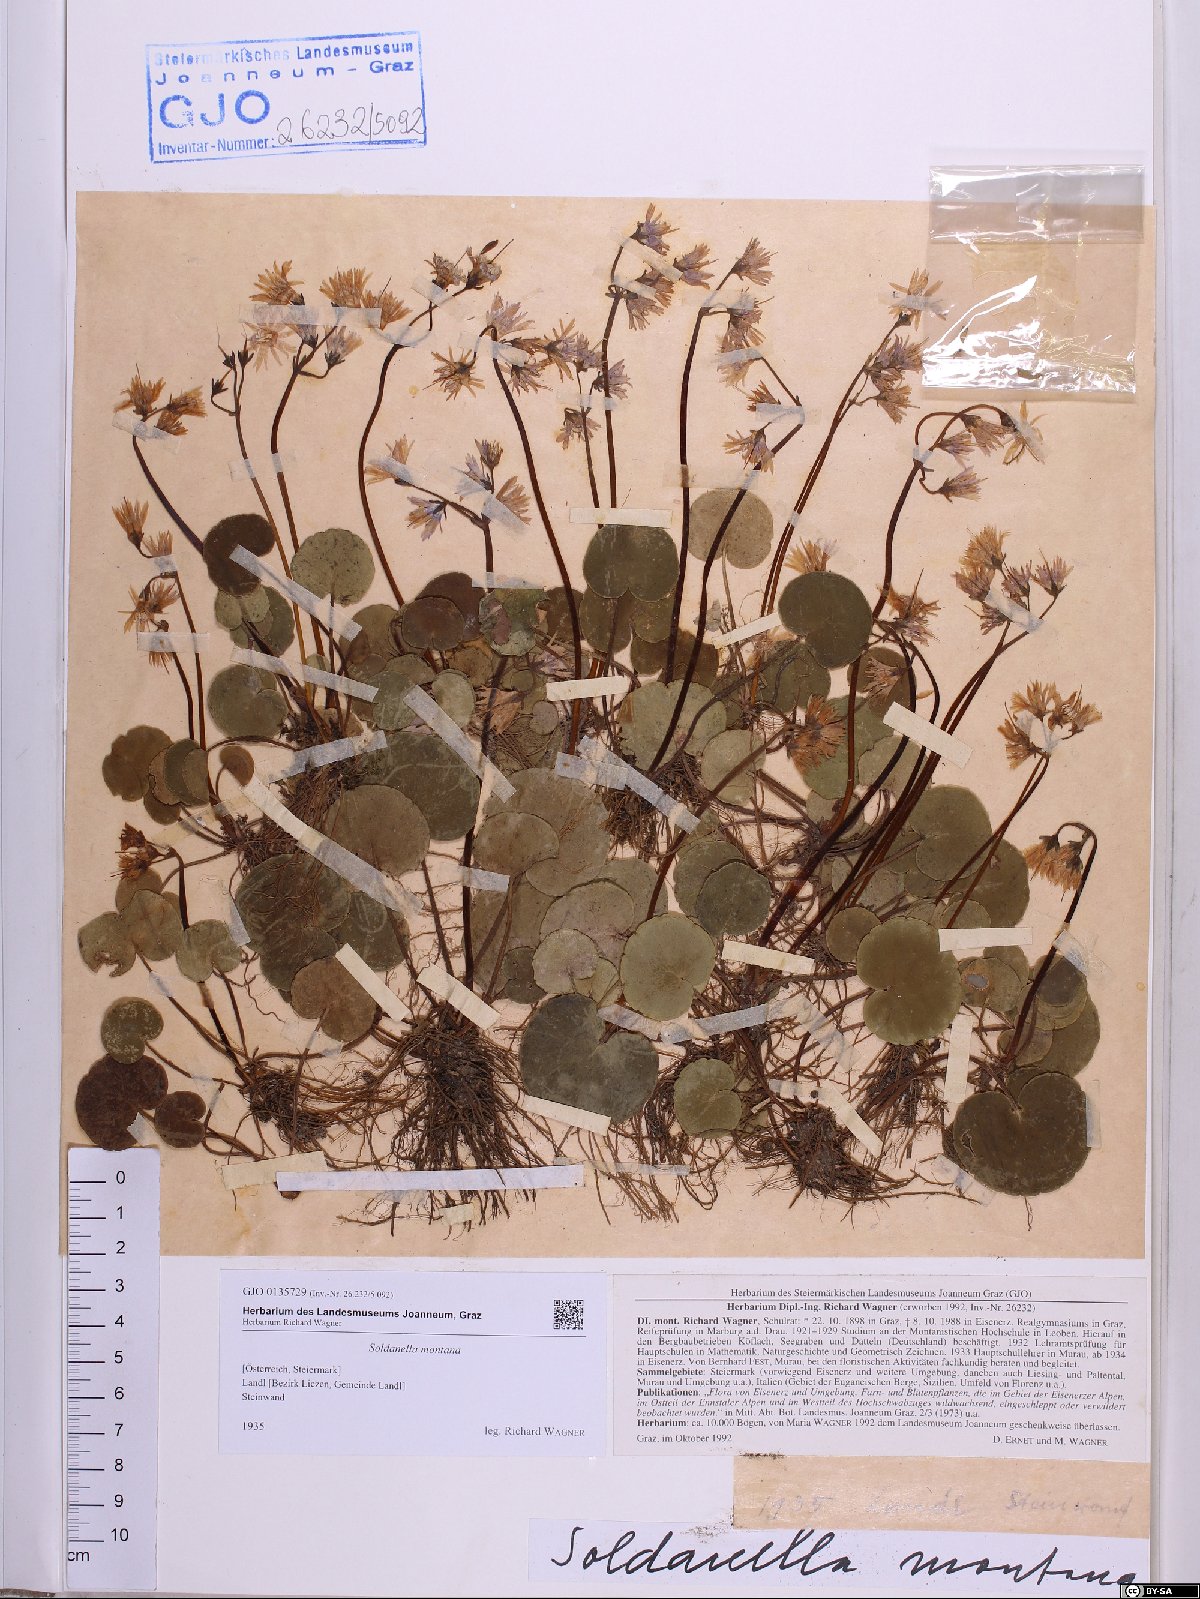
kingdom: Plantae
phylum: Tracheophyta
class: Magnoliopsida
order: Ericales
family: Primulaceae
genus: Soldanella
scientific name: Soldanella montana
